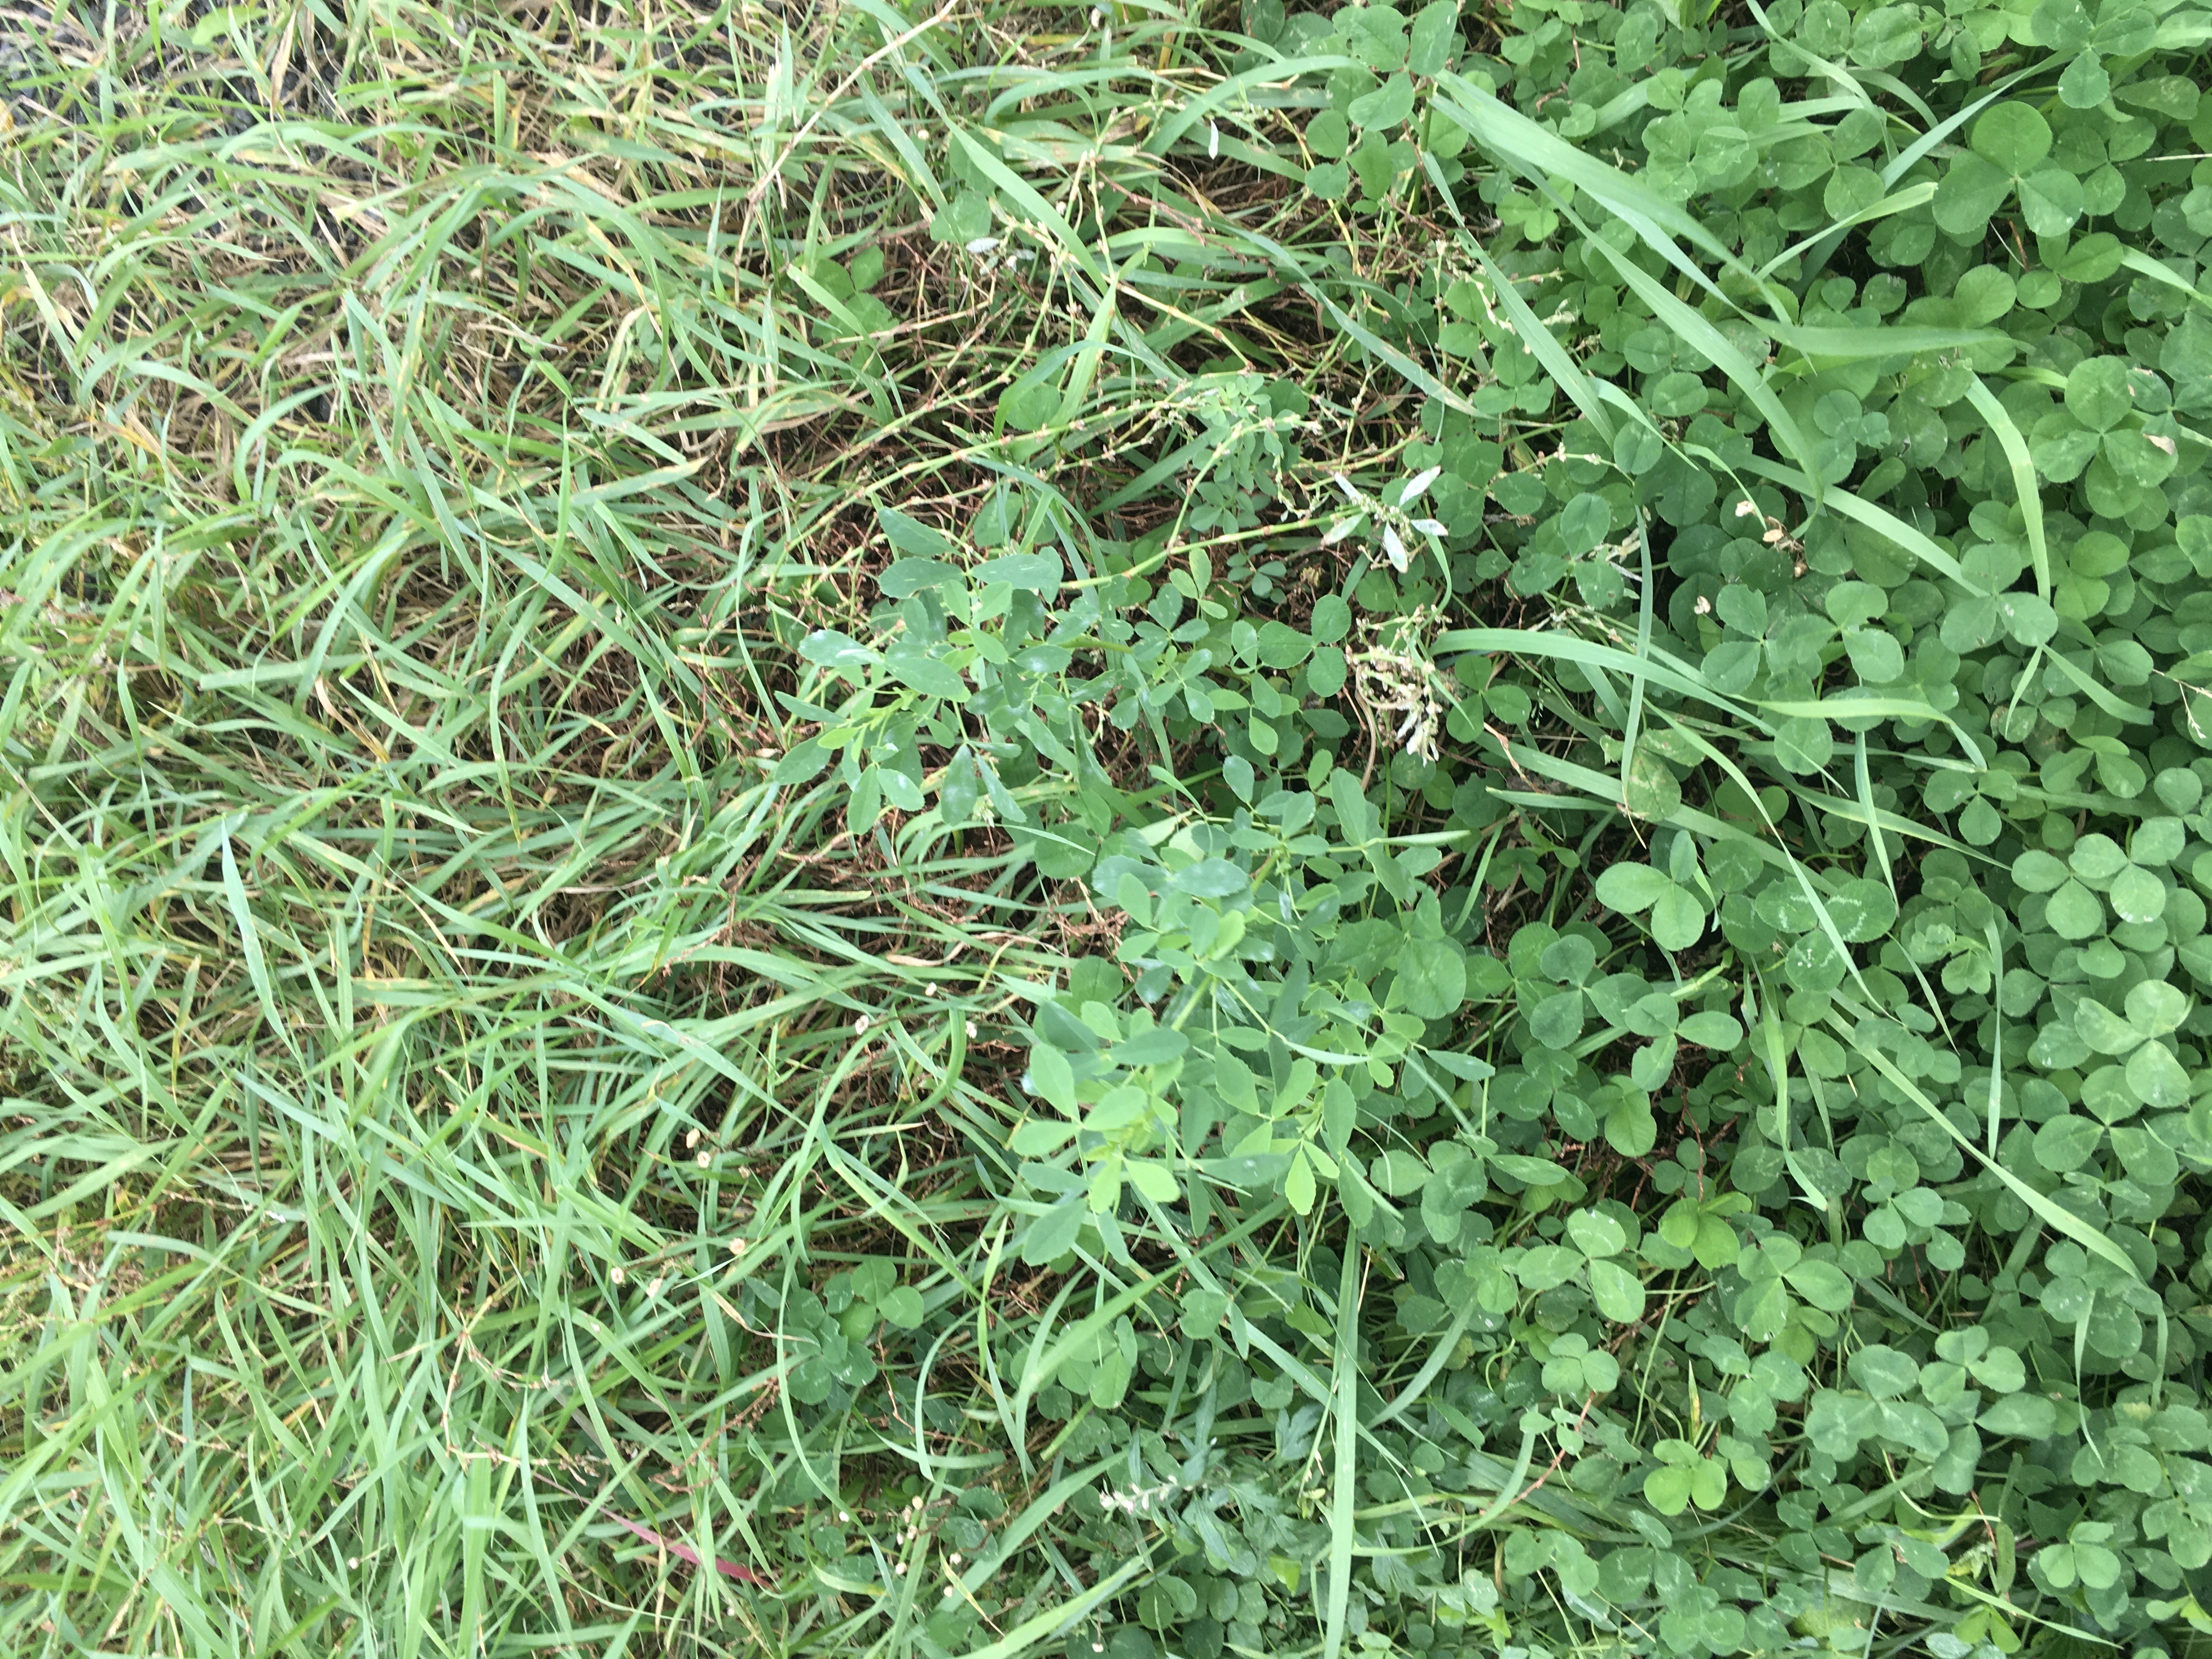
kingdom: Plantae
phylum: Tracheophyta
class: Magnoliopsida
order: Fabales
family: Fabaceae
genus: Melilotus
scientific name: Melilotus albus
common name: hvitsteinkløver
